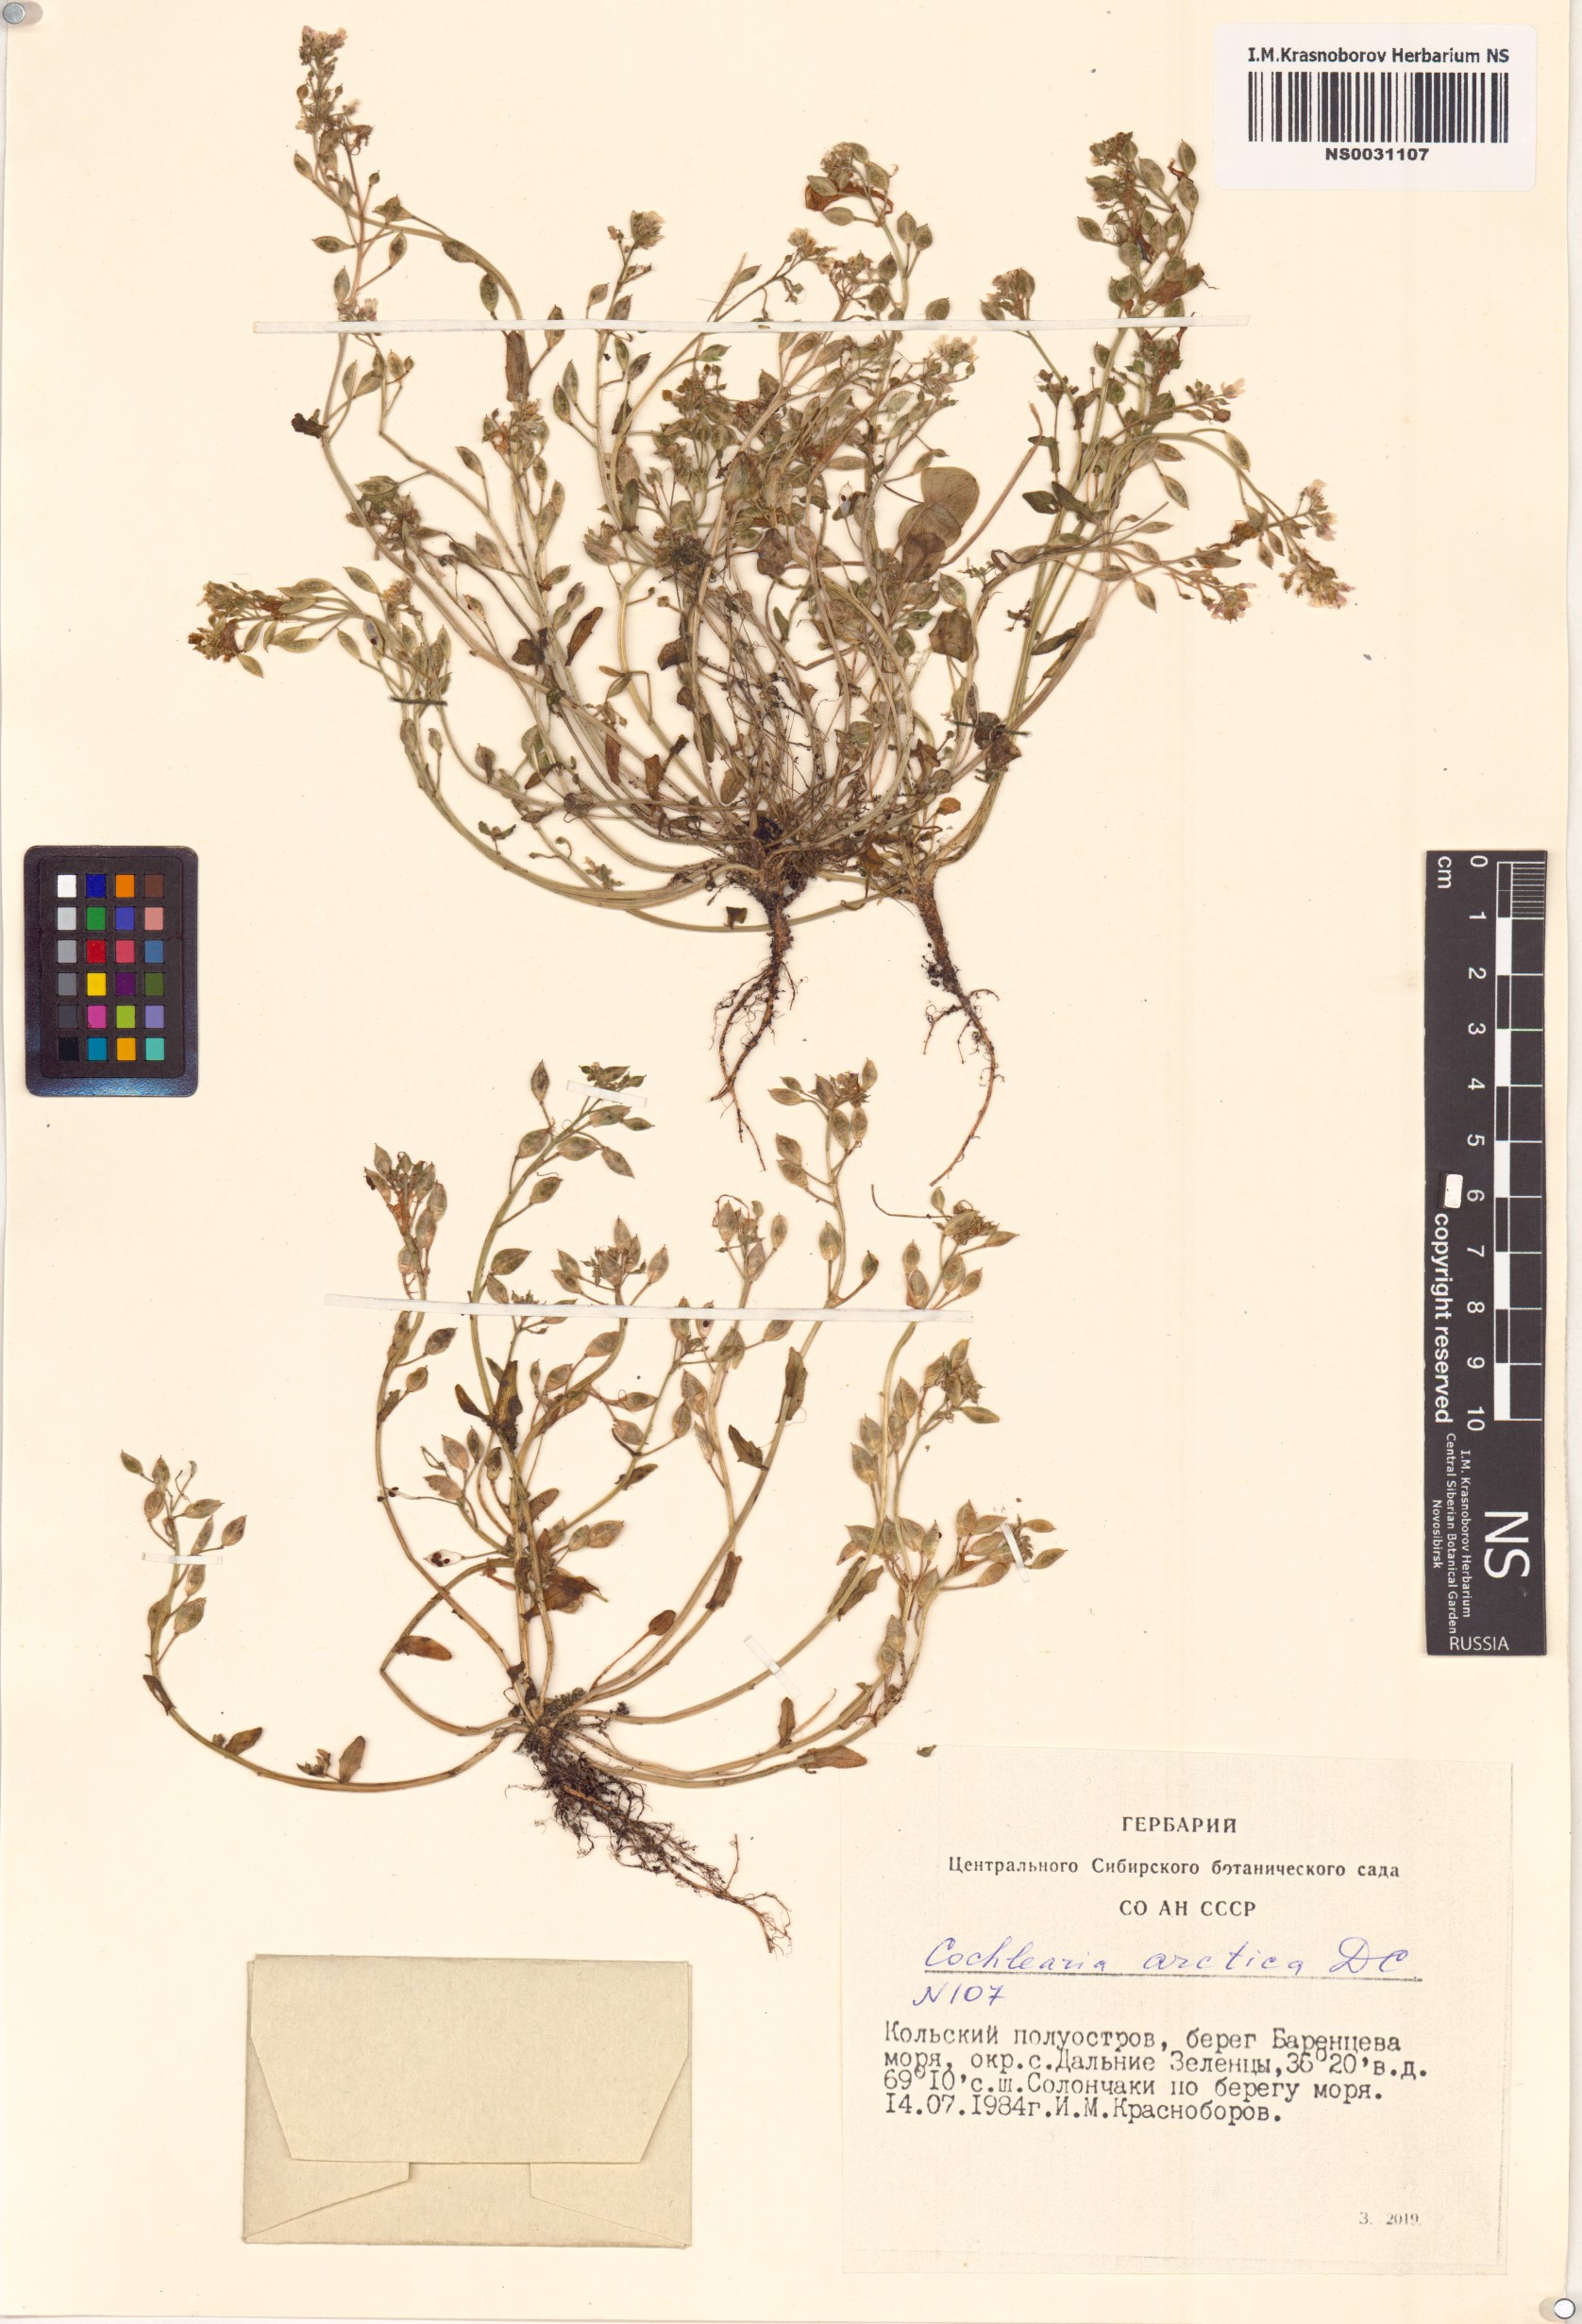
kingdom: Plantae
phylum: Tracheophyta
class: Magnoliopsida
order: Brassicales
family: Brassicaceae
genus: Cochlearia
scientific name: Cochlearia groenlandica
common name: Danish scurvygrass
